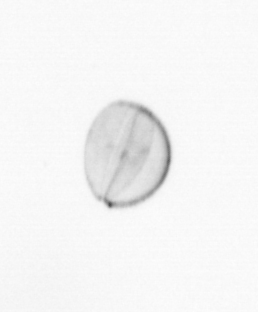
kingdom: Chromista
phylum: Ochrophyta
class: Bacillariophyceae
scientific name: Bacillariophyceae
